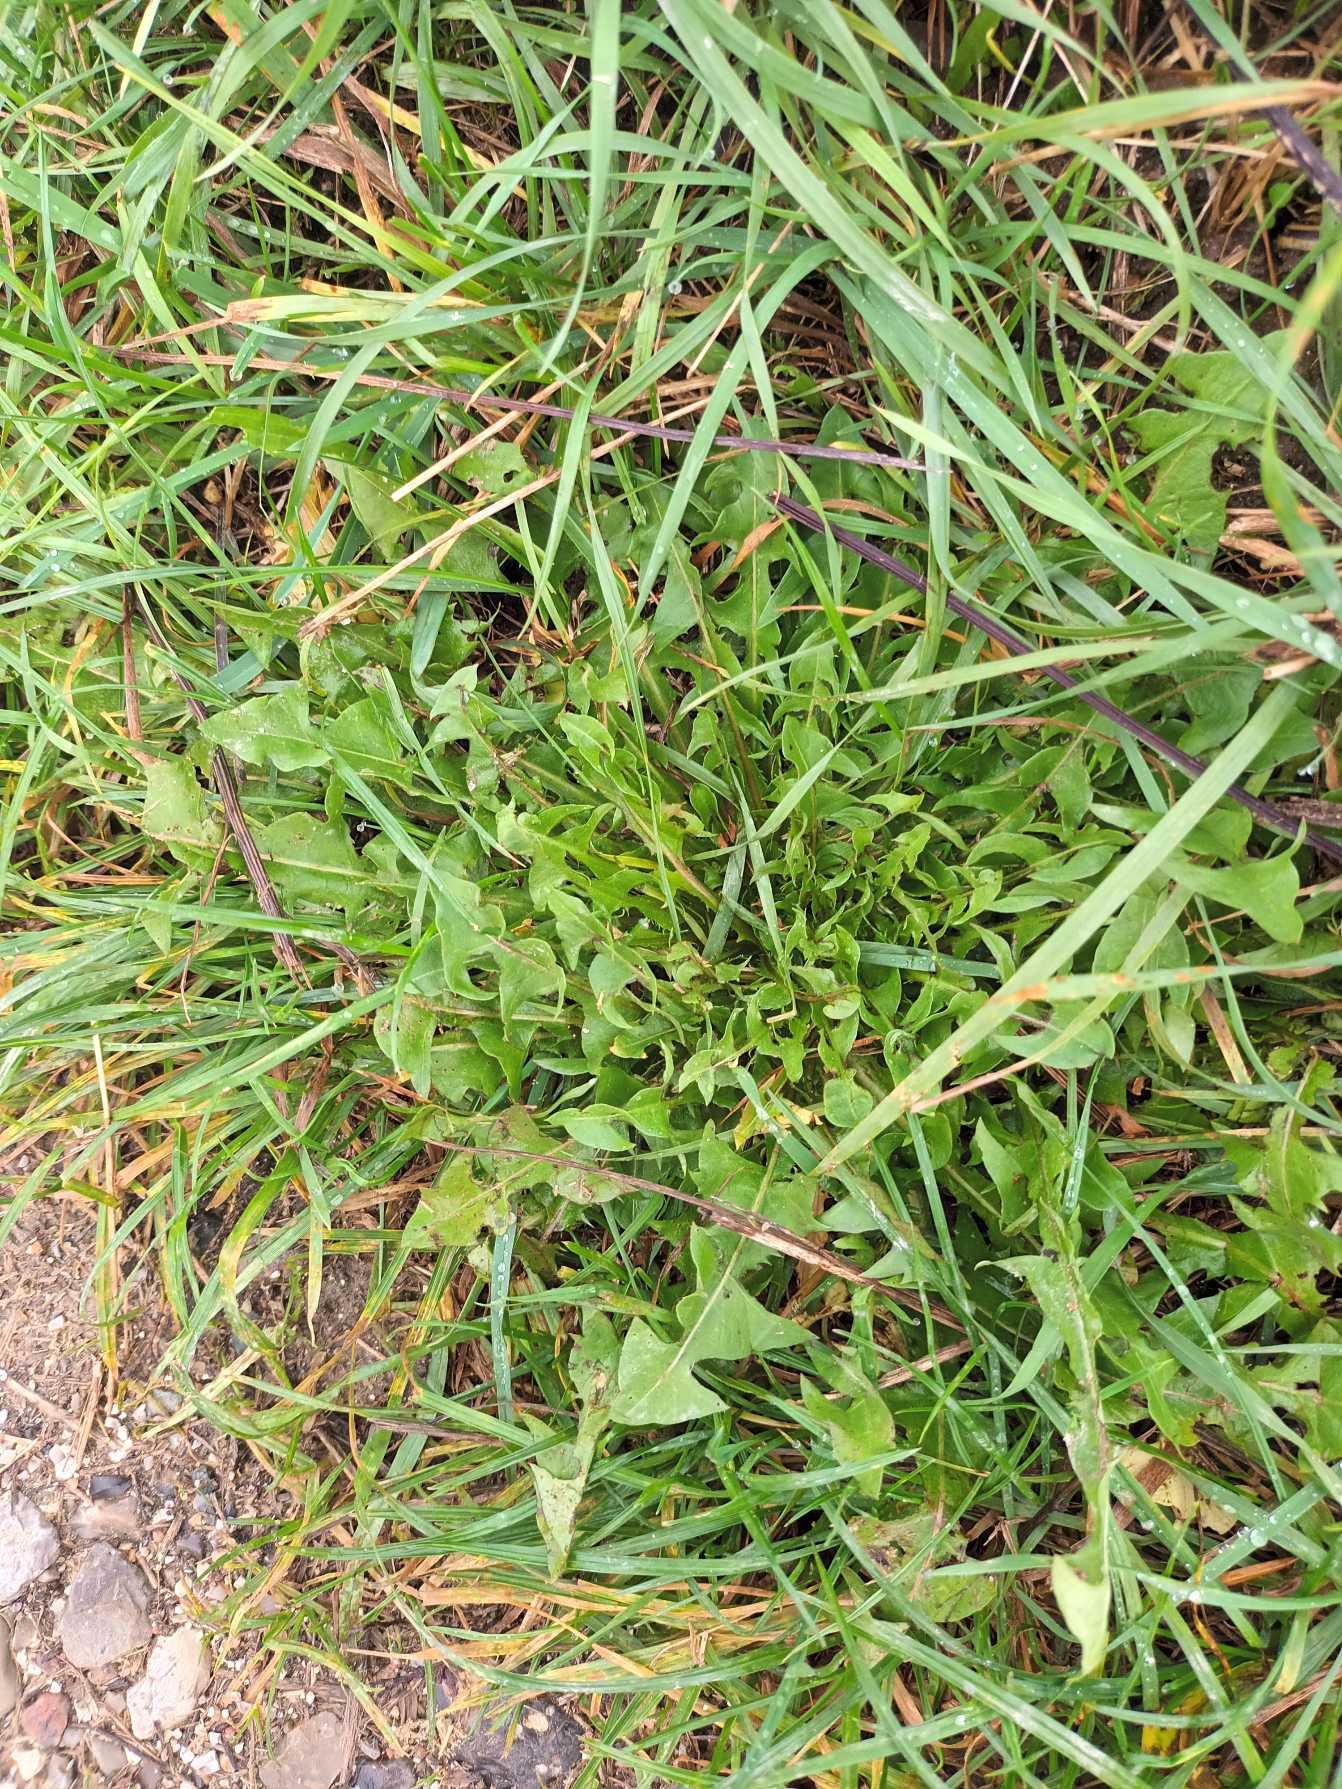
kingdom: Plantae
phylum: Tracheophyta
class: Magnoliopsida
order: Asterales
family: Asteraceae
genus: Taraxacum
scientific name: Taraxacum
